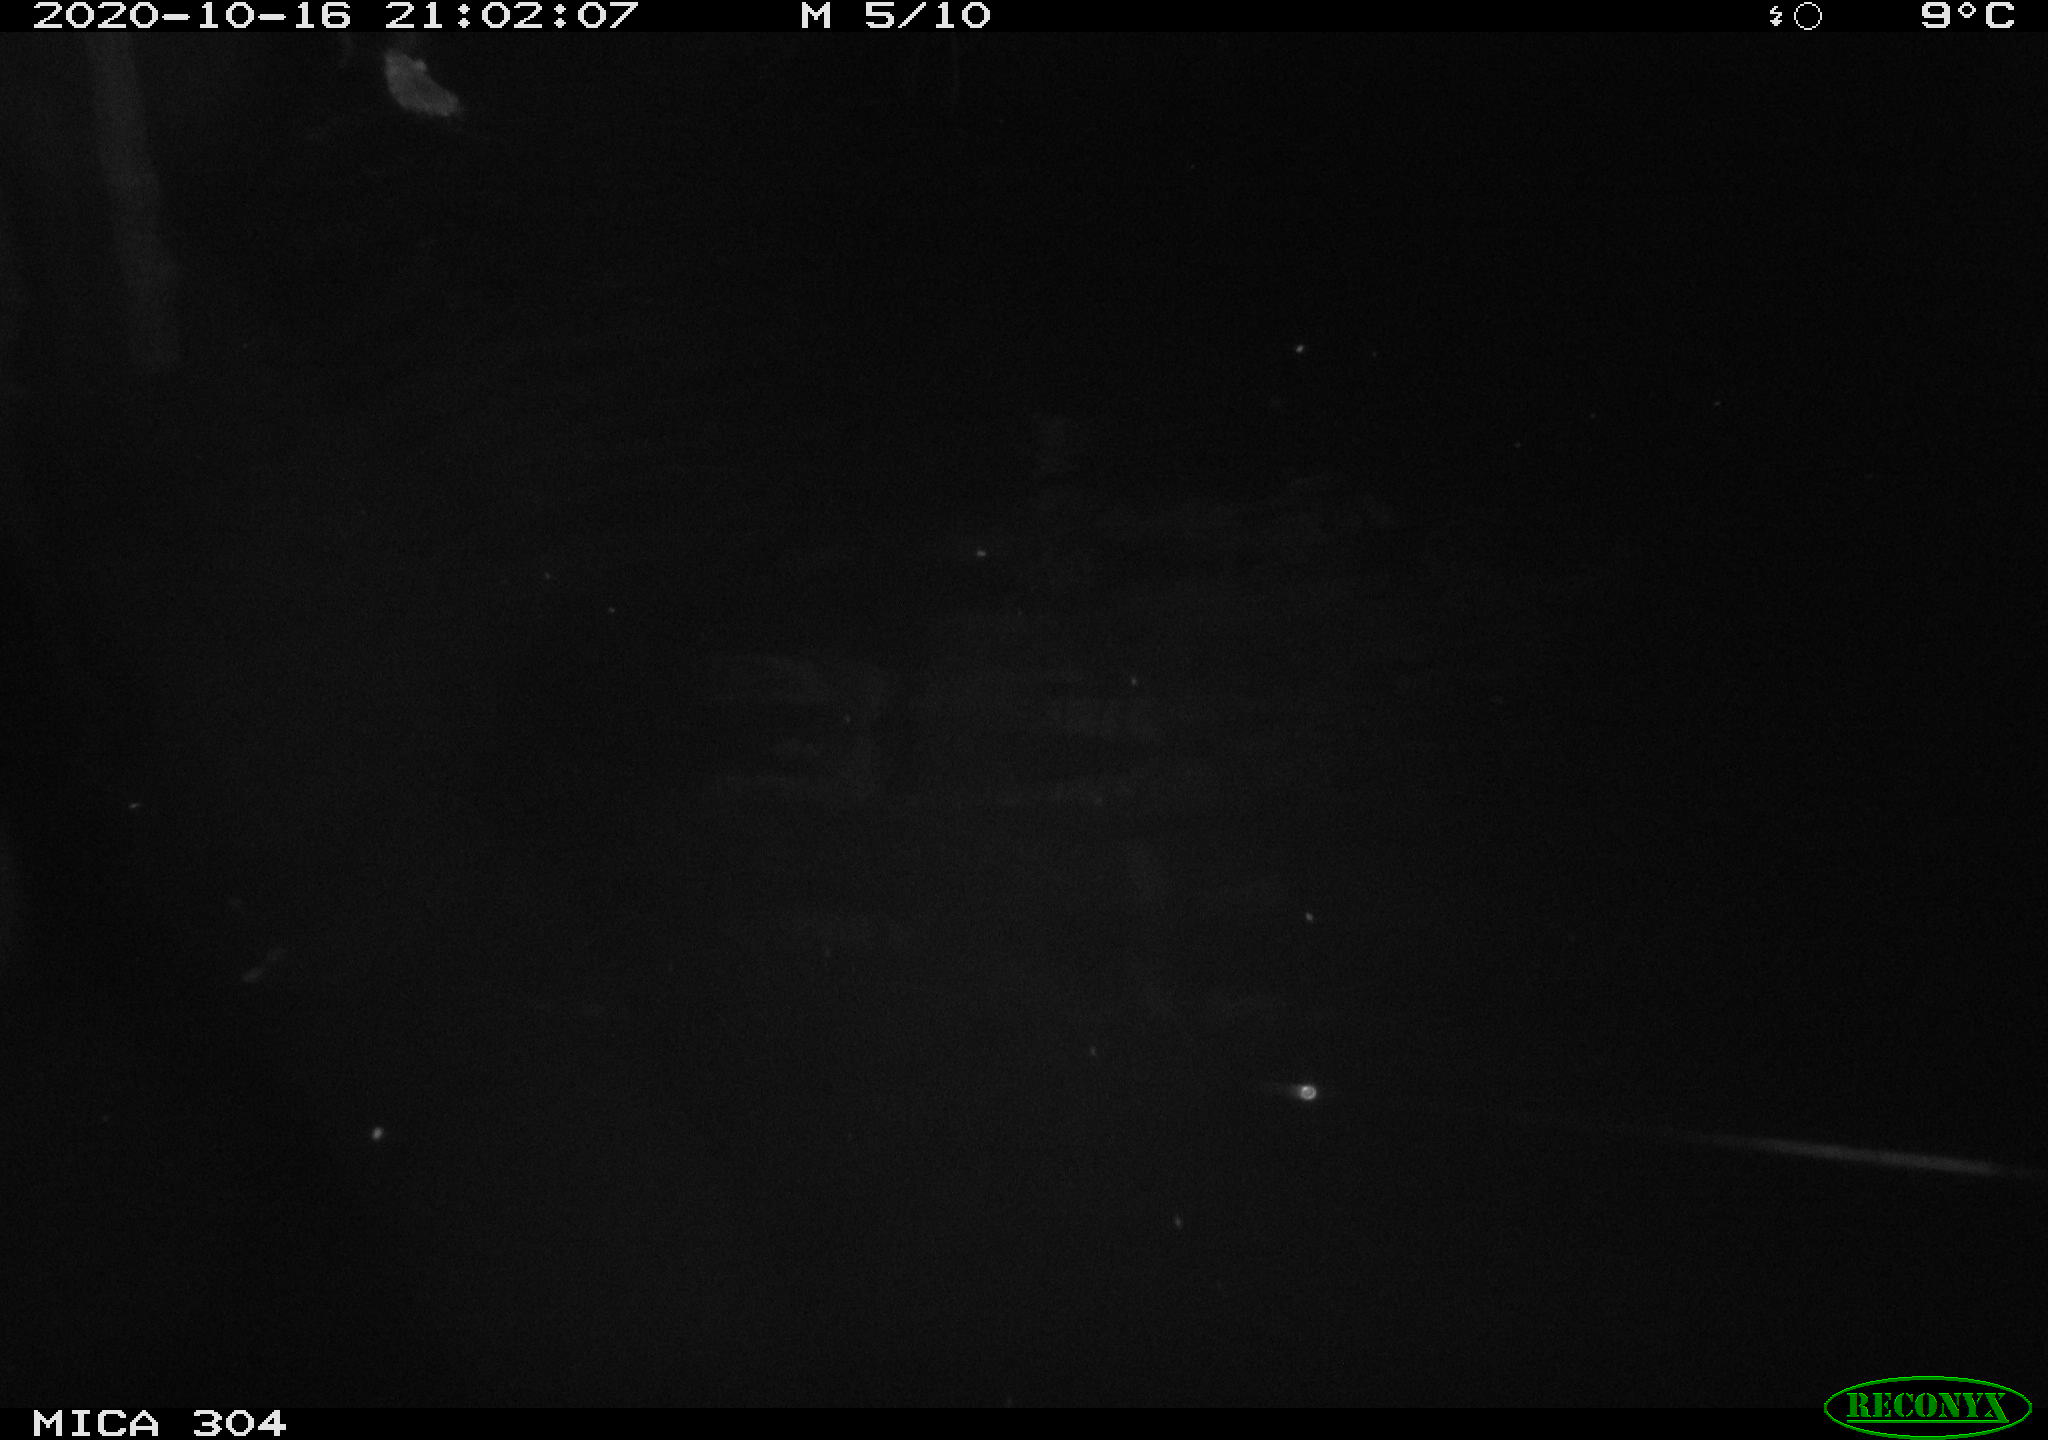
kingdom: Animalia
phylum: Chordata
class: Mammalia
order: Rodentia
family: Muridae
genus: Rattus
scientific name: Rattus norvegicus
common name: Brown rat
